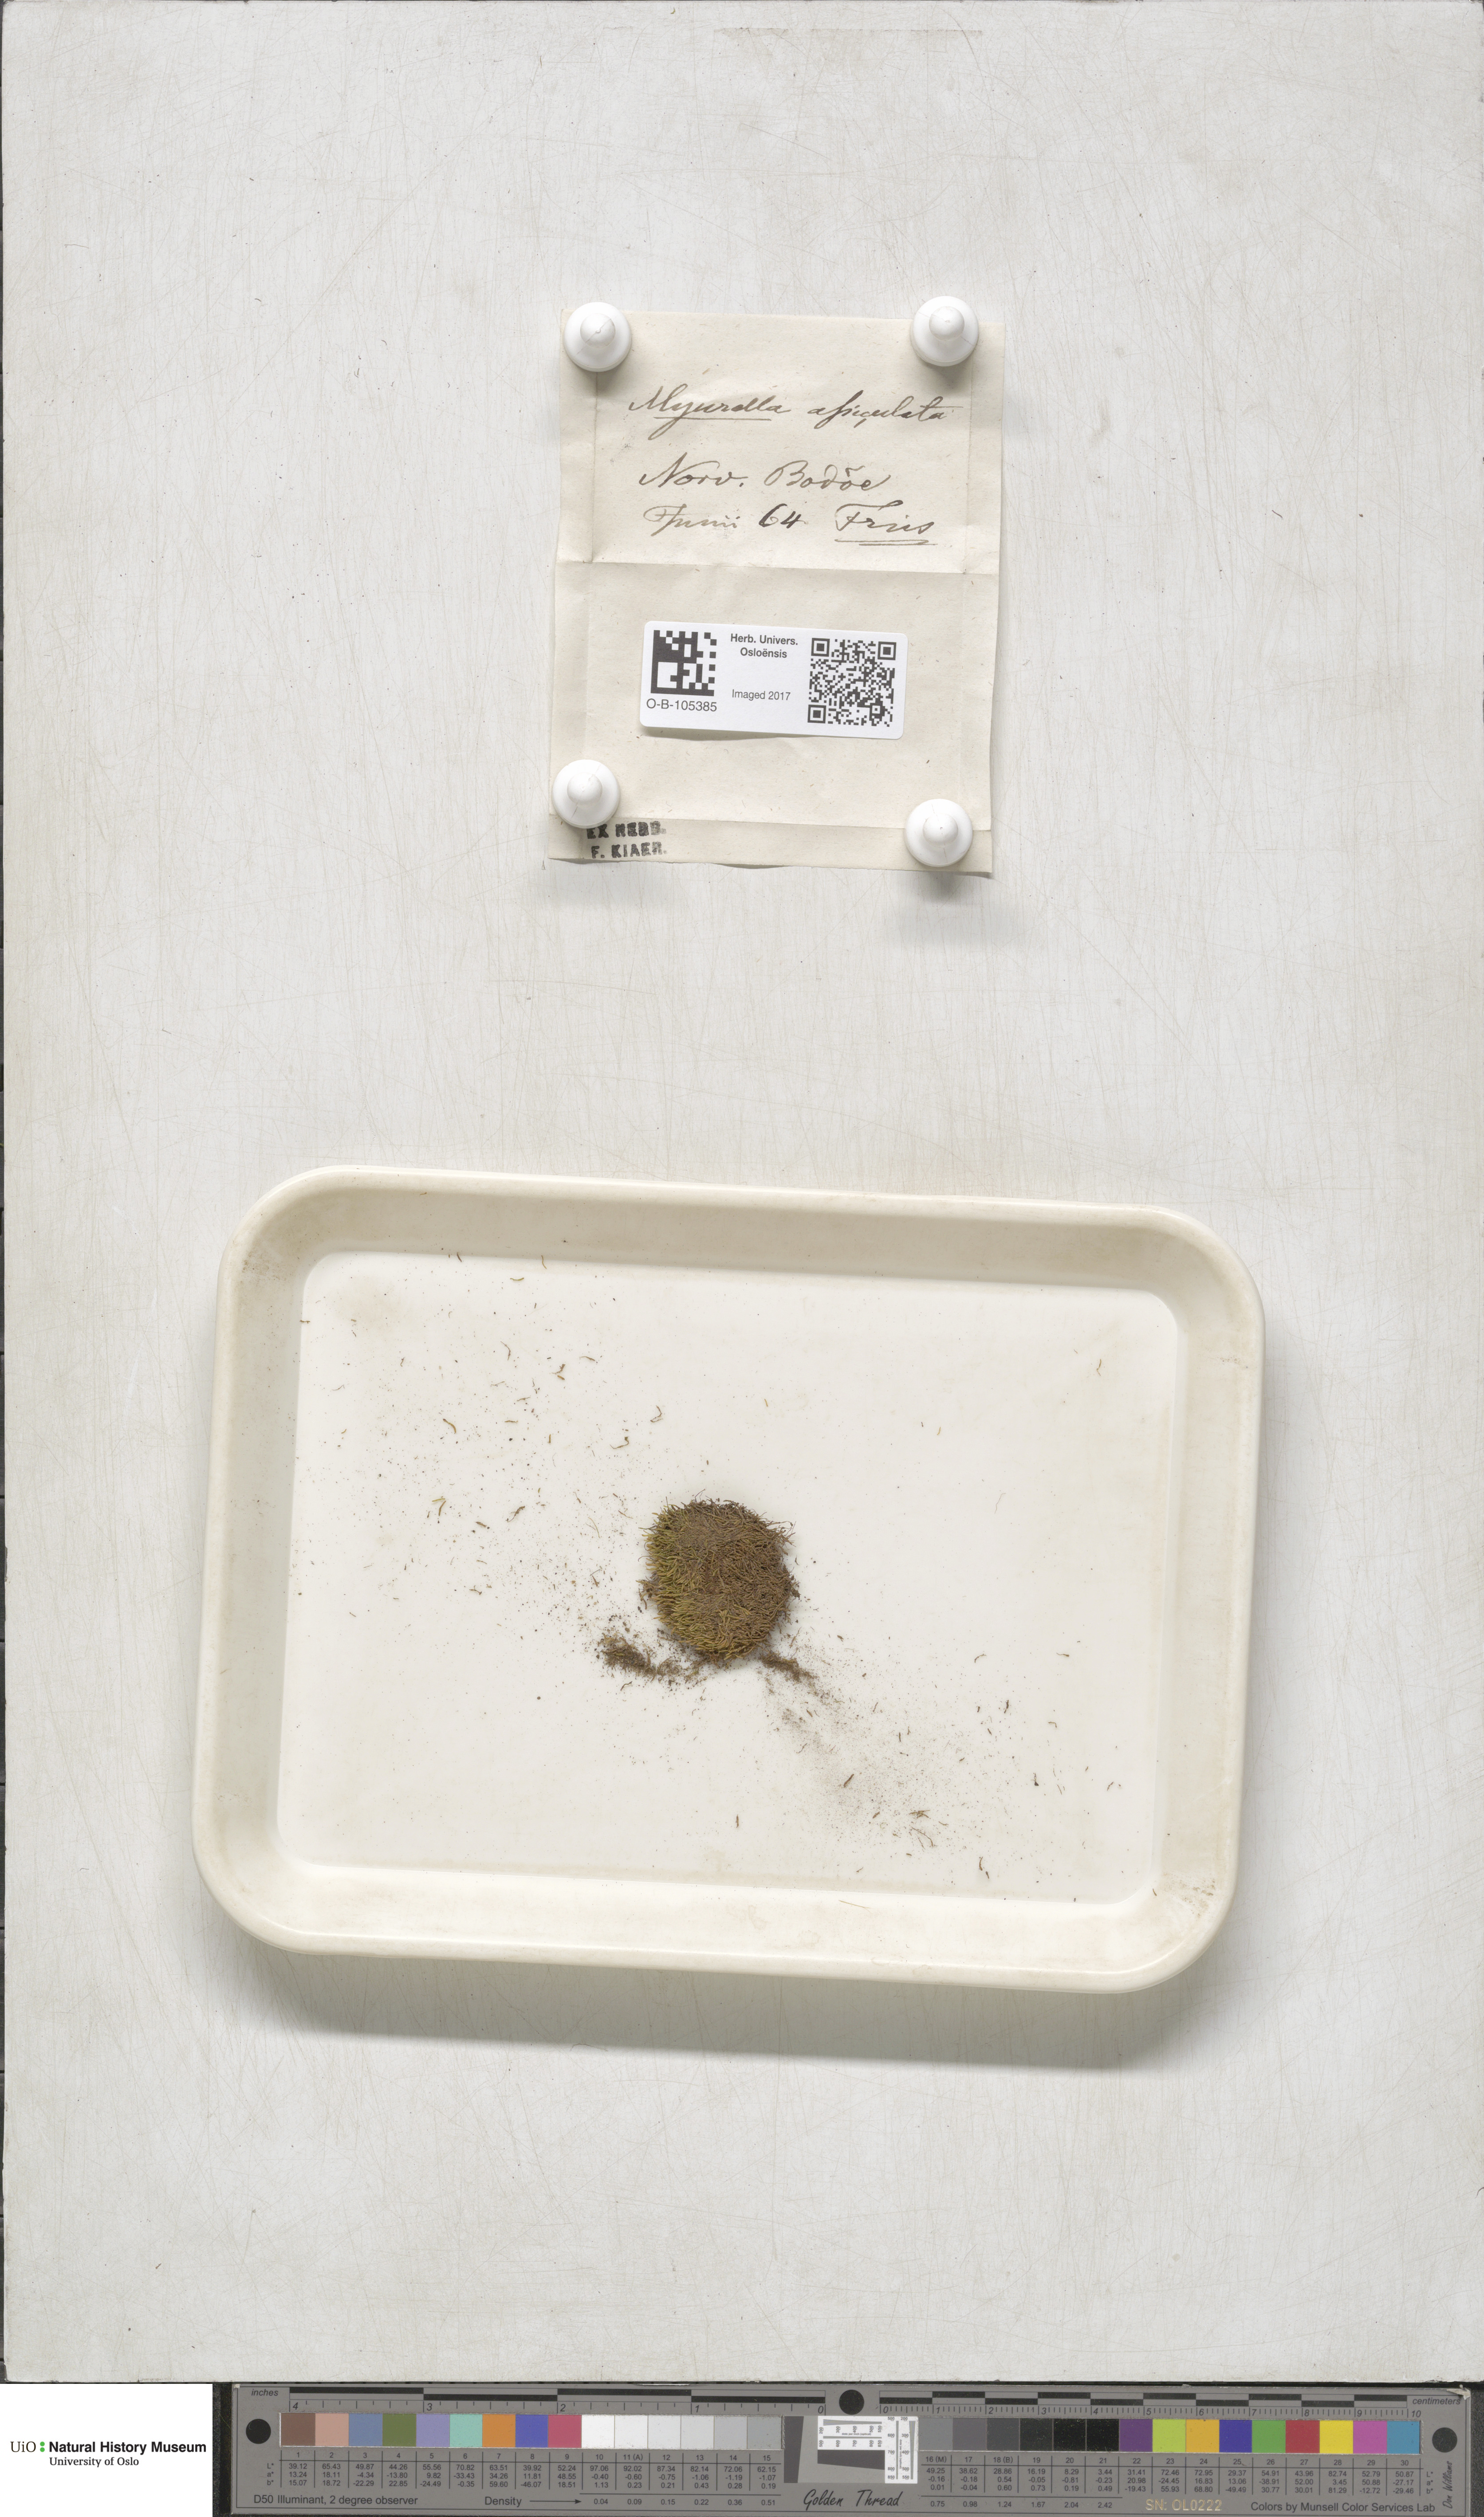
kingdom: Plantae
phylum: Bryophyta
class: Bryopsida
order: Hypnales
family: Plagiotheciaceae
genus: Myurella
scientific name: Myurella tenerrima
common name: Dwarf mousetail moss
